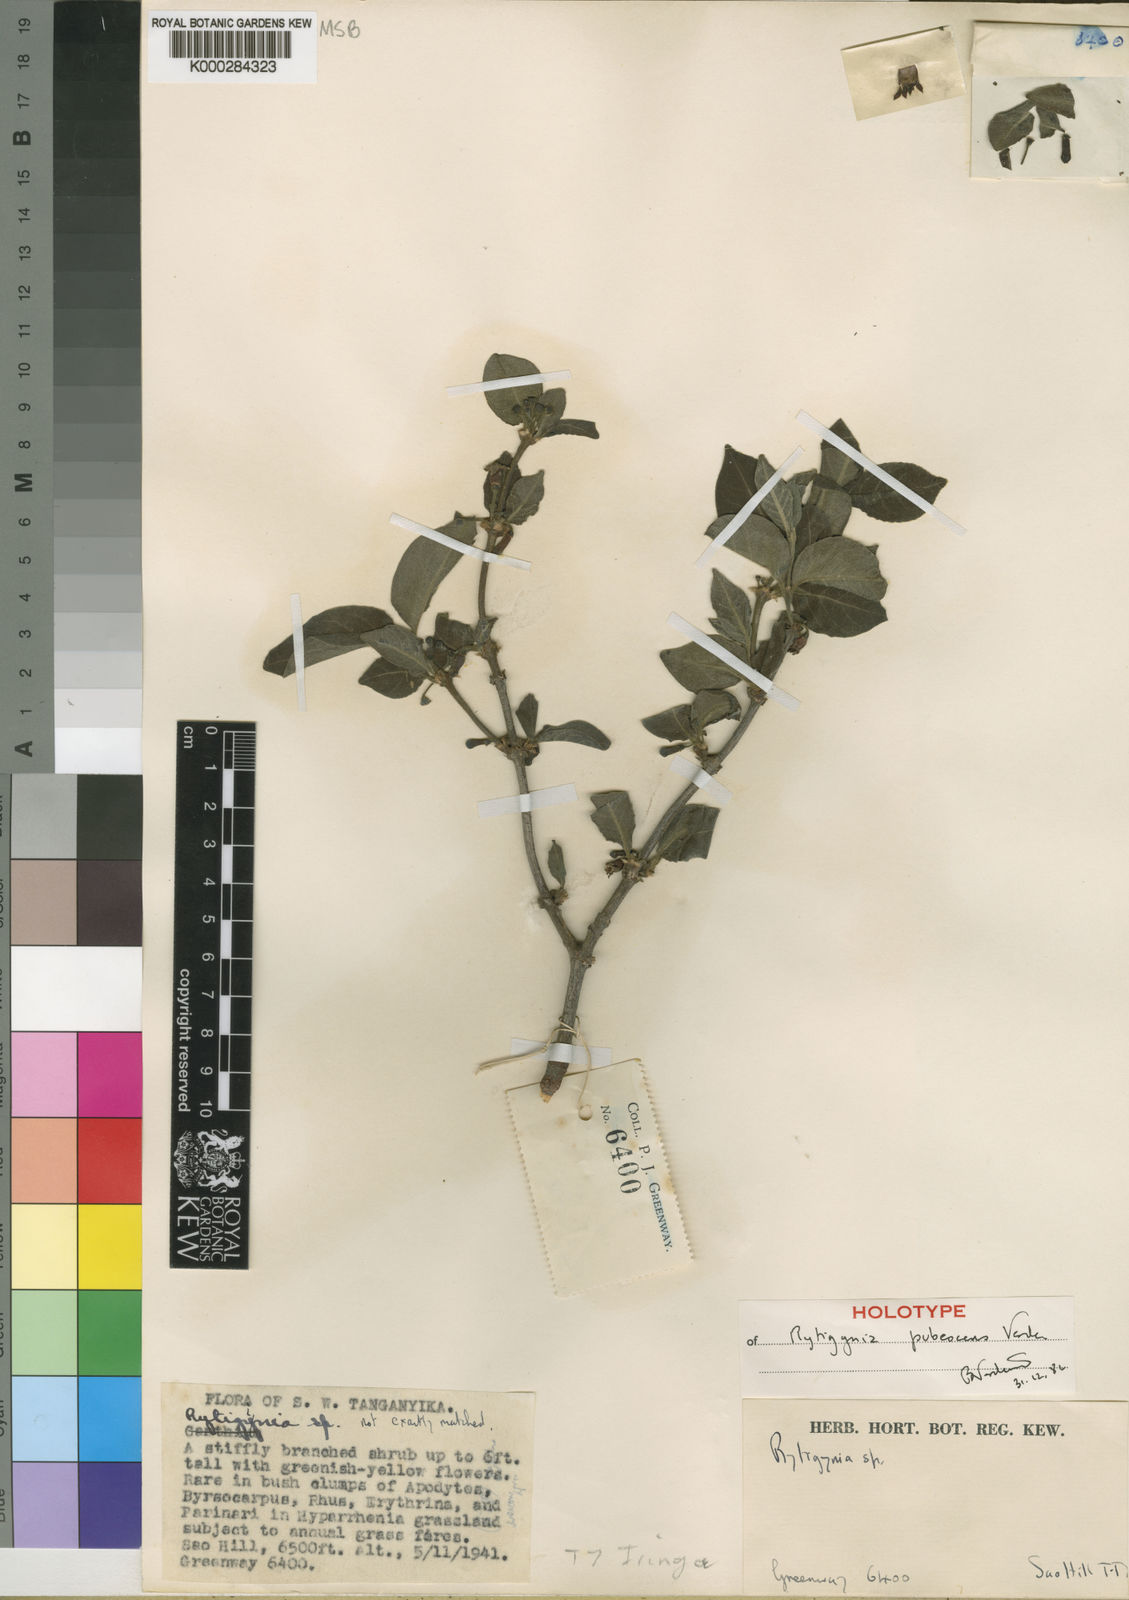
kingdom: Plantae
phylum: Tracheophyta
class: Magnoliopsida
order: Gentianales
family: Rubiaceae
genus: Rytigynia
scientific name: Rytigynia pubescens
